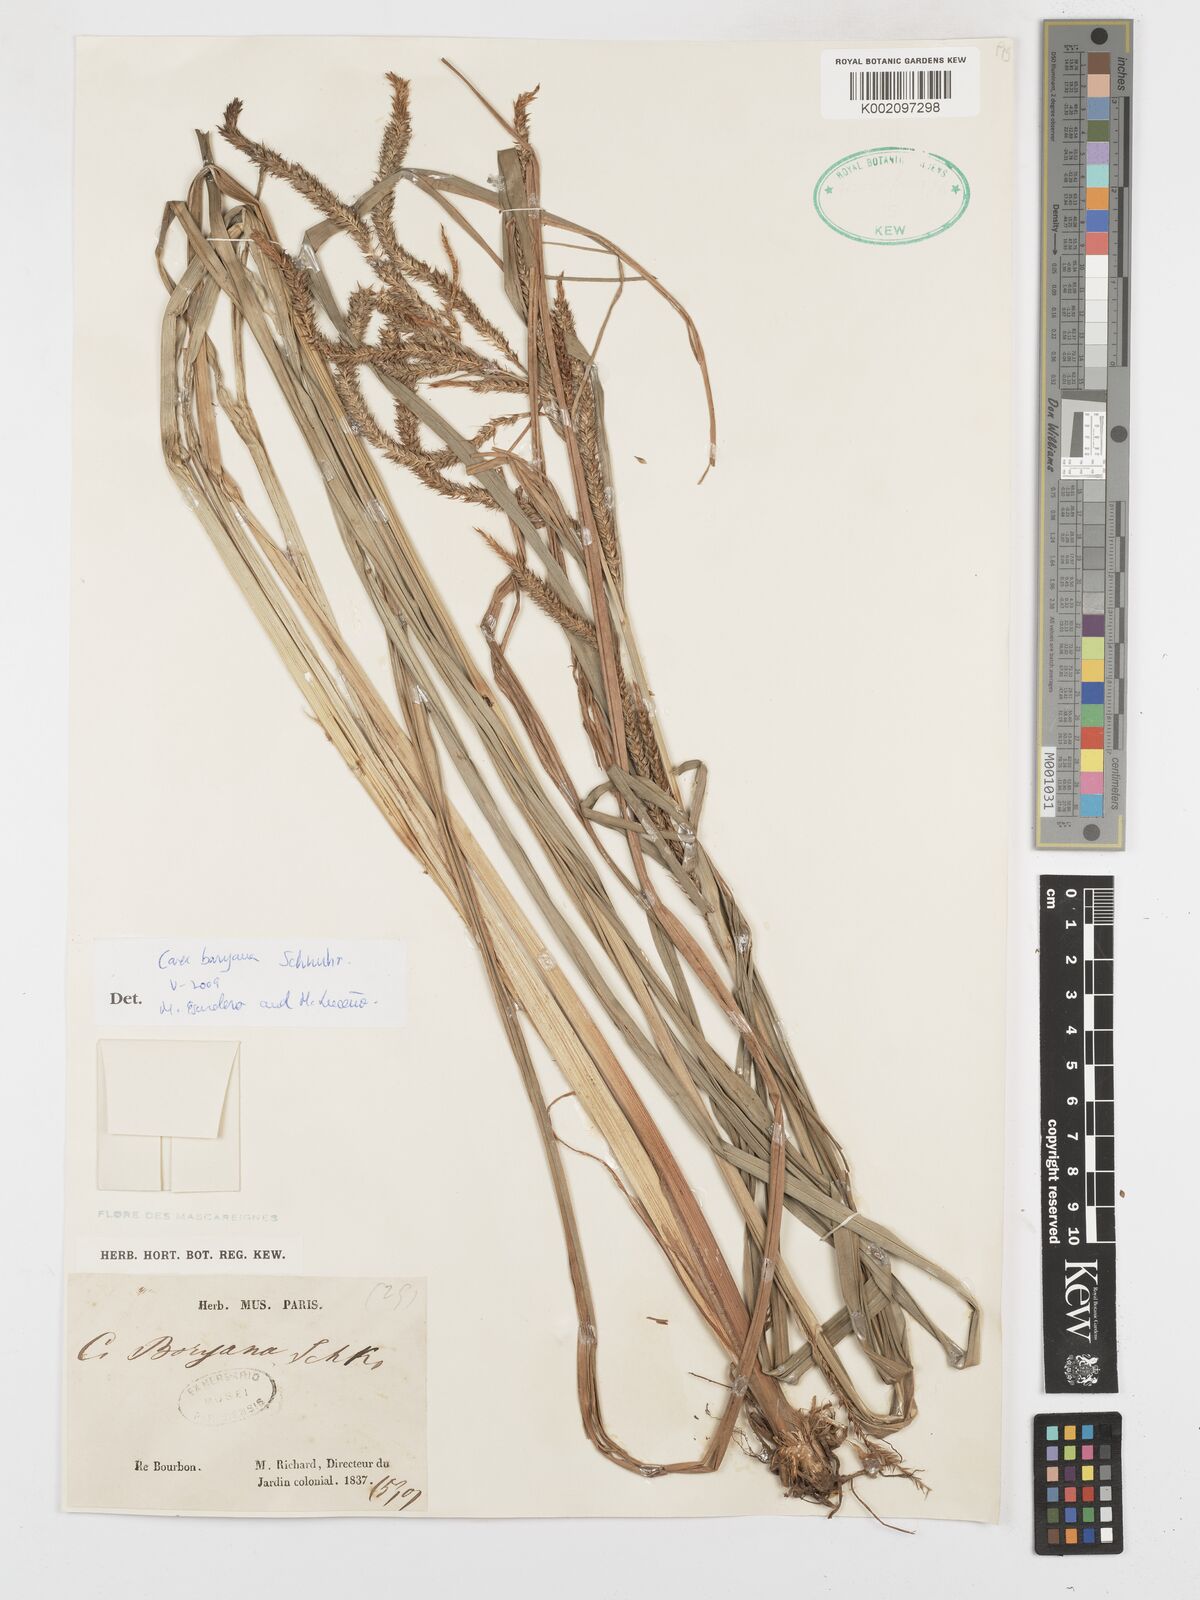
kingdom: Plantae
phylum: Tracheophyta
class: Liliopsida
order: Poales
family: Cyperaceae
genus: Carex
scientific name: Carex boryana
